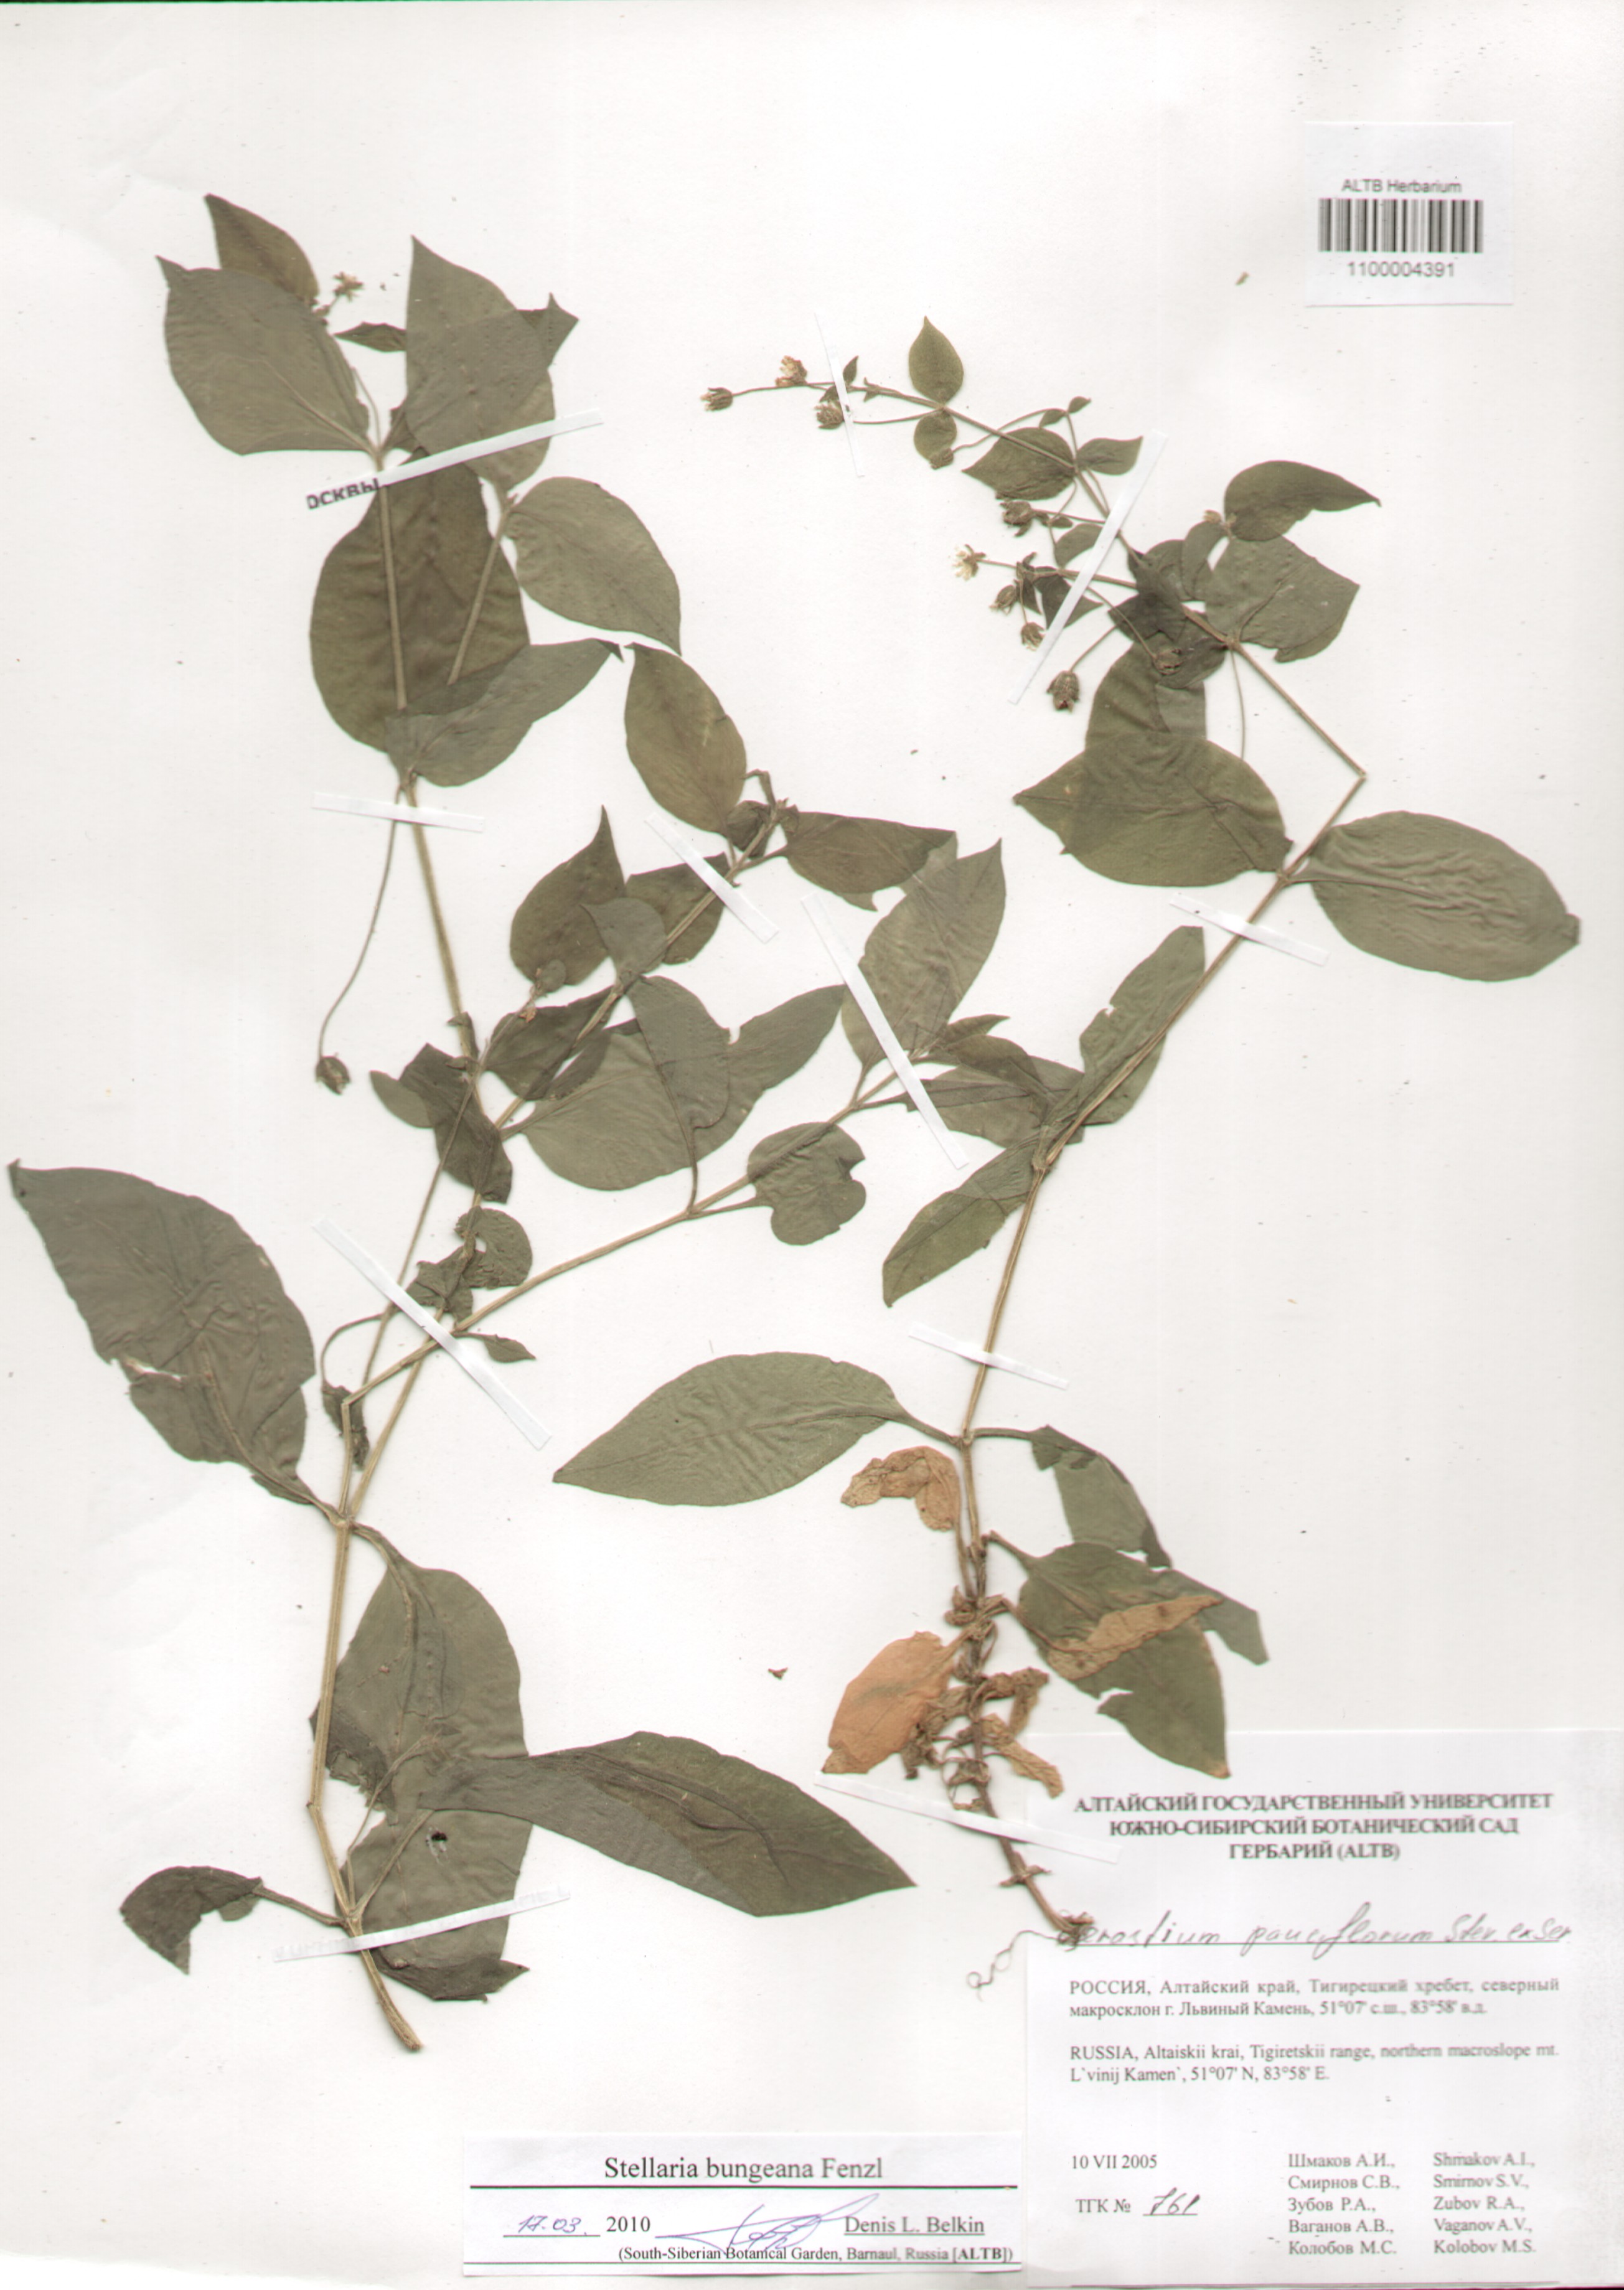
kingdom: Plantae
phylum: Tracheophyta
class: Magnoliopsida
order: Caryophyllales
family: Caryophyllaceae
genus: Stellaria
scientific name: Stellaria bungeana
